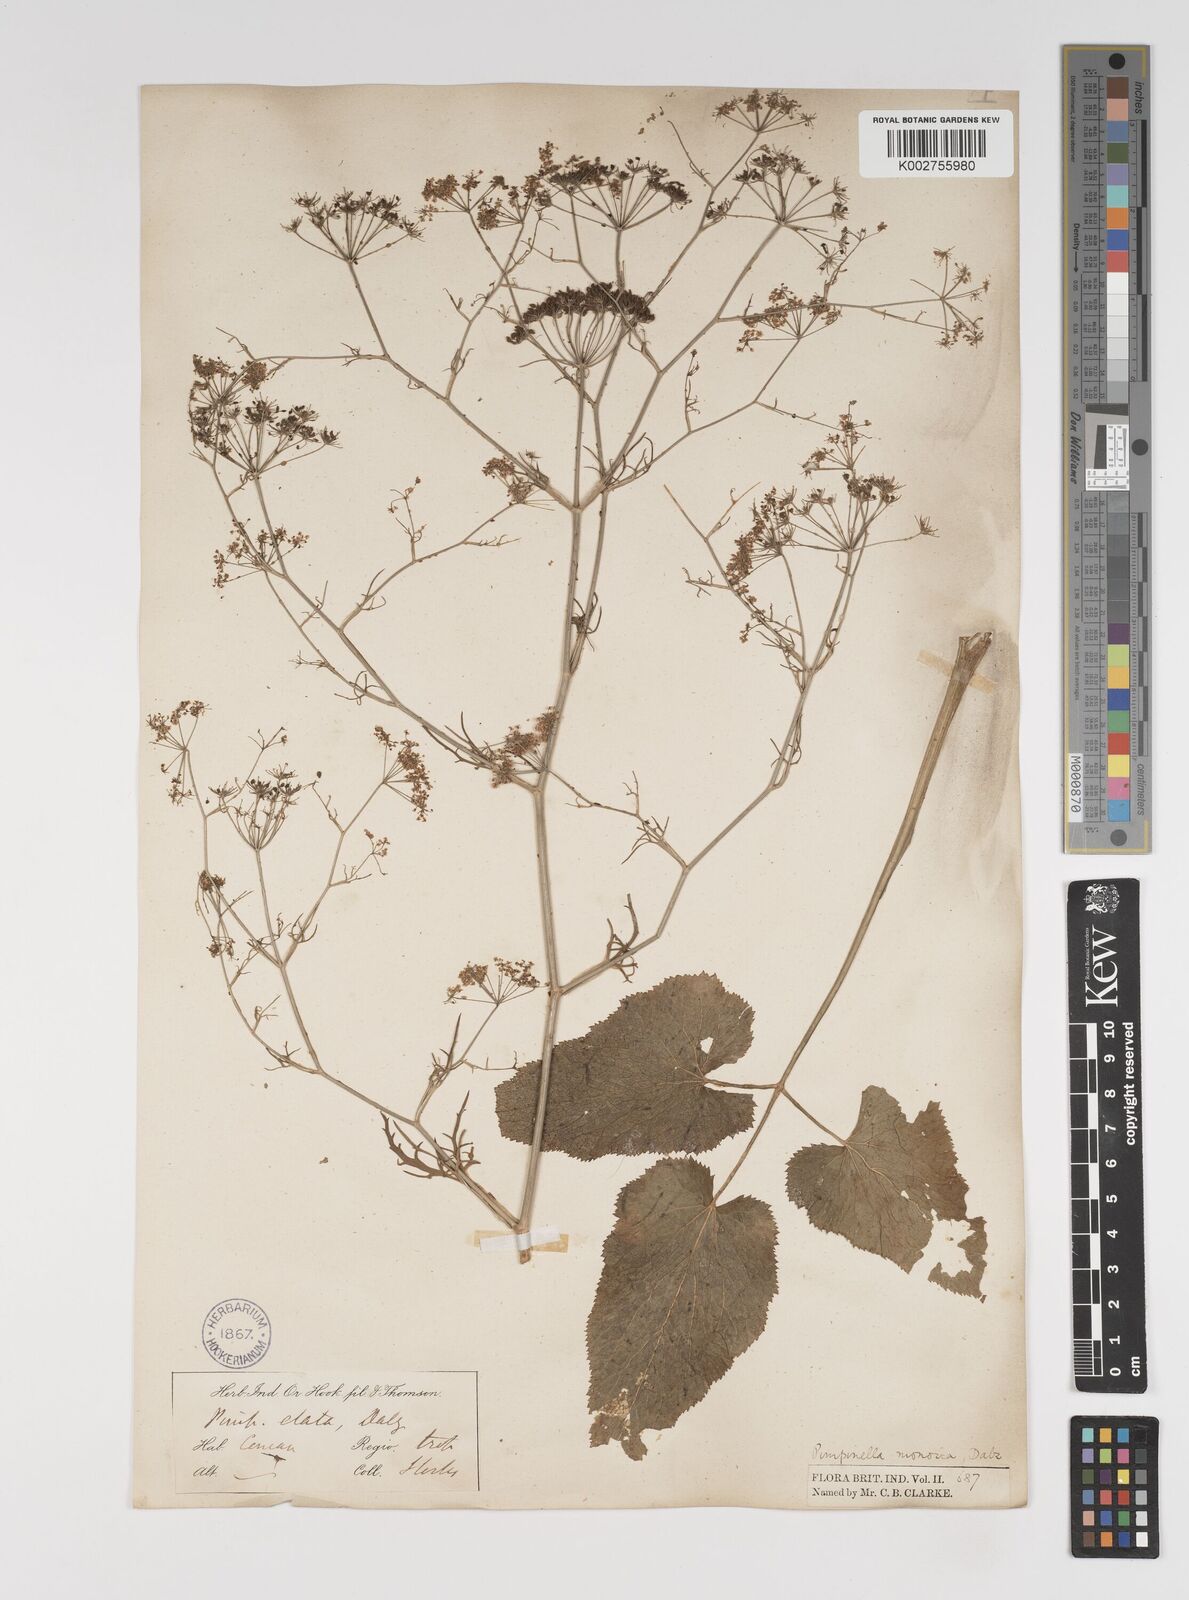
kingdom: Plantae
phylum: Tracheophyta
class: Magnoliopsida
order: Apiales
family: Apiaceae
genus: Pimpinella
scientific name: Pimpinella wallichiana
